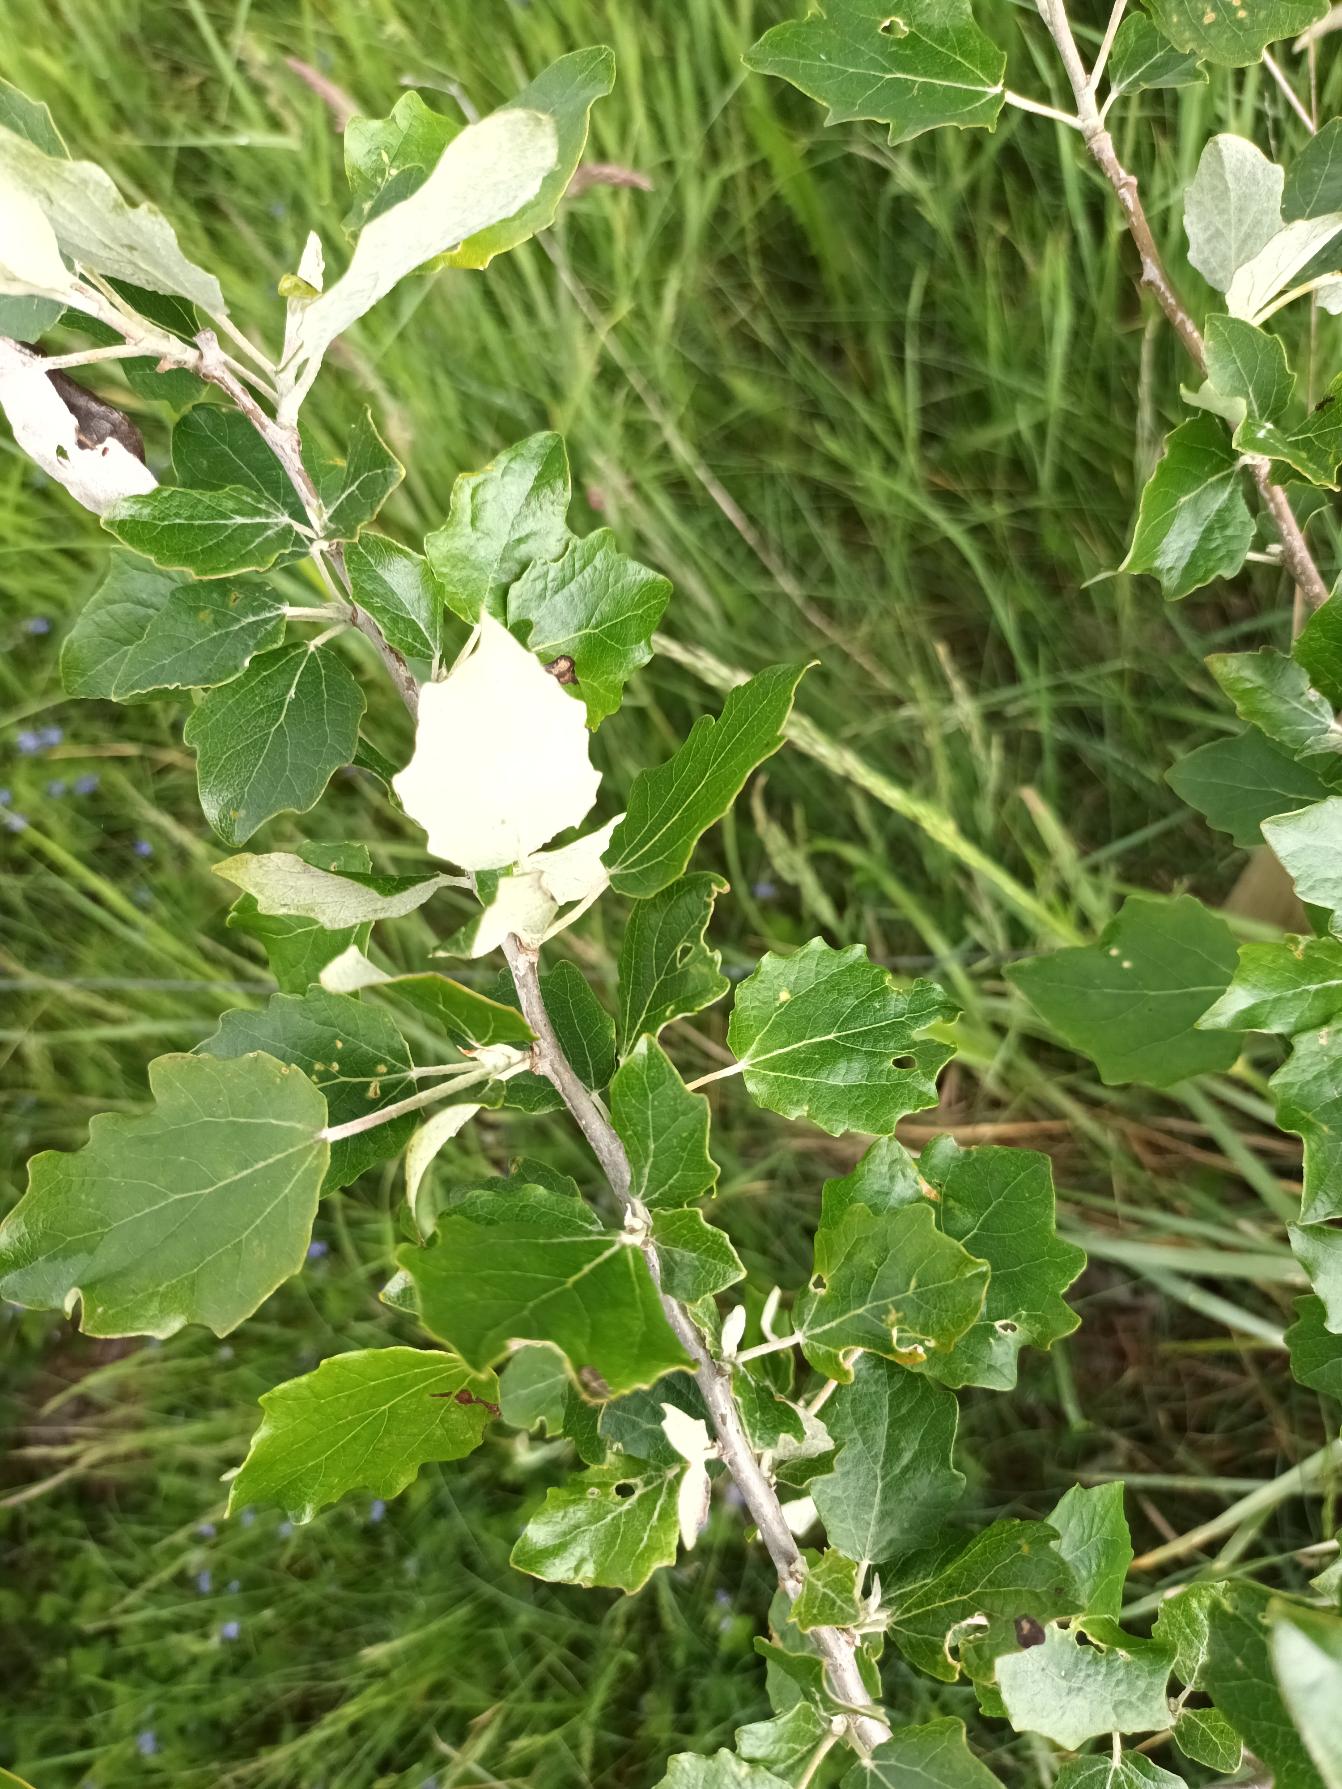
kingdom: Plantae
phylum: Tracheophyta
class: Magnoliopsida
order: Malpighiales
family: Salicaceae
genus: Populus
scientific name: Populus canescens
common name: Grå-poppel
